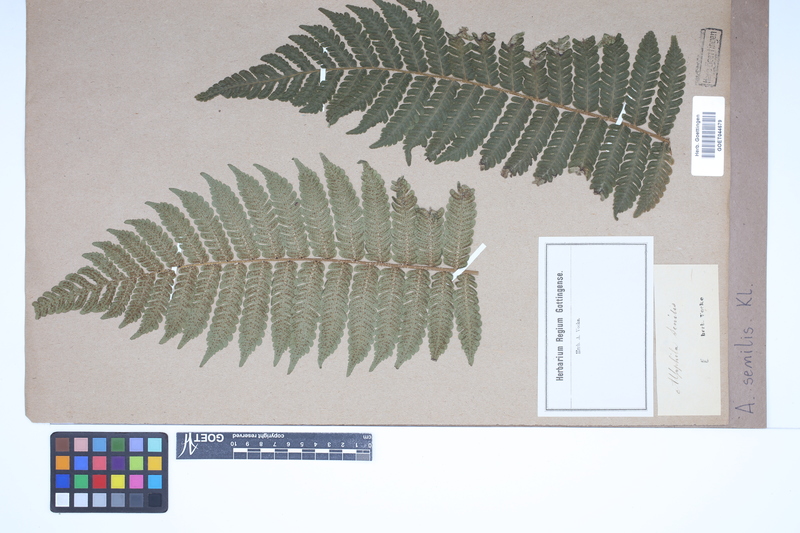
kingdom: Plantae
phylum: Tracheophyta
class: Polypodiopsida
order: Cyatheales
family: Cyatheaceae
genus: Sphaeropteris
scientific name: Sphaeropteris senilis
